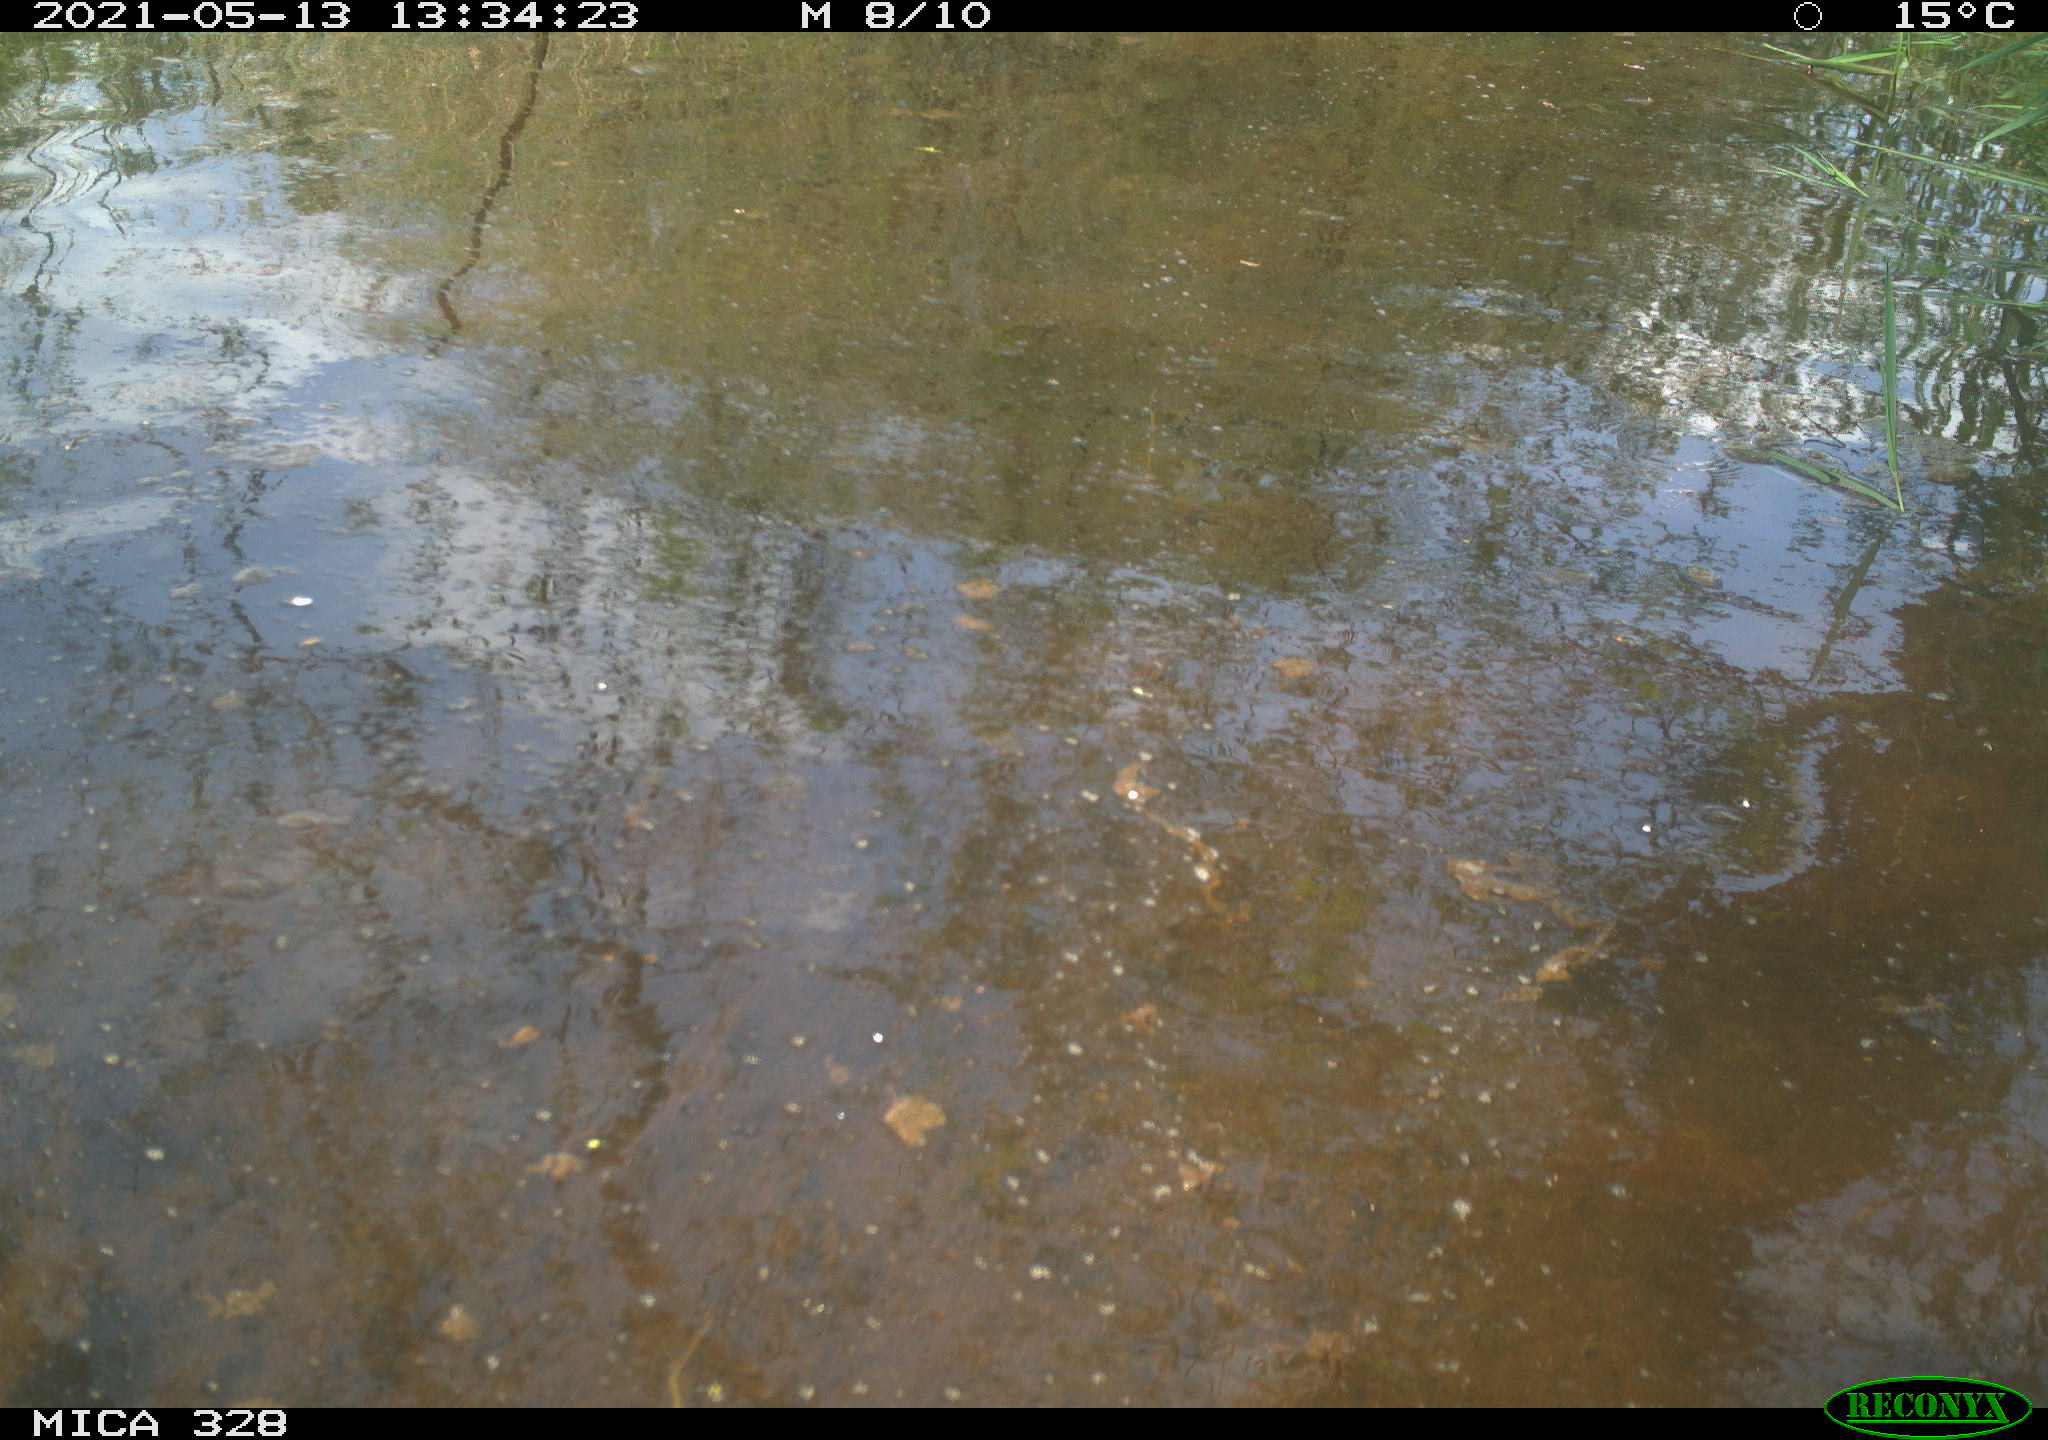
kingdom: Animalia
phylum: Chordata
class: Mammalia
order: Rodentia
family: Cricetidae
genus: Ondatra
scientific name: Ondatra zibethicus
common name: Muskrat
